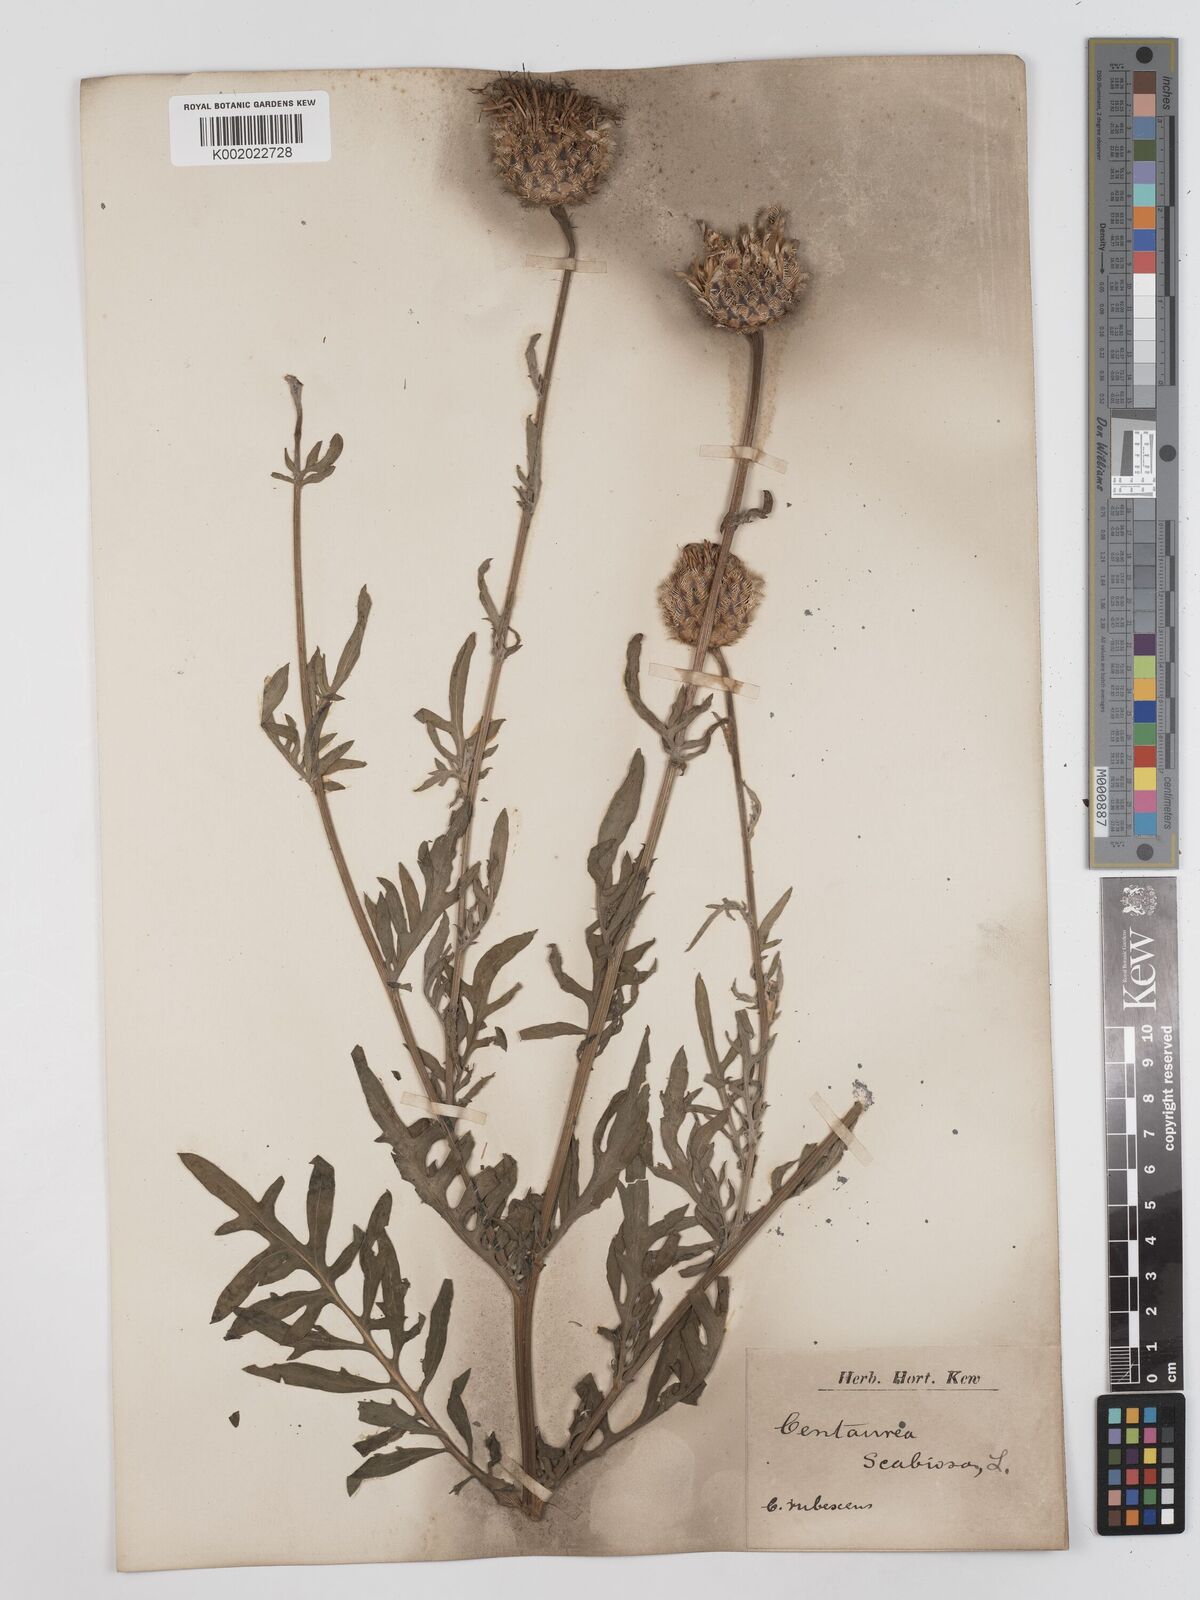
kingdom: Plantae
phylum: Tracheophyta
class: Magnoliopsida
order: Asterales
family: Asteraceae
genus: Centaurea
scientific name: Centaurea
